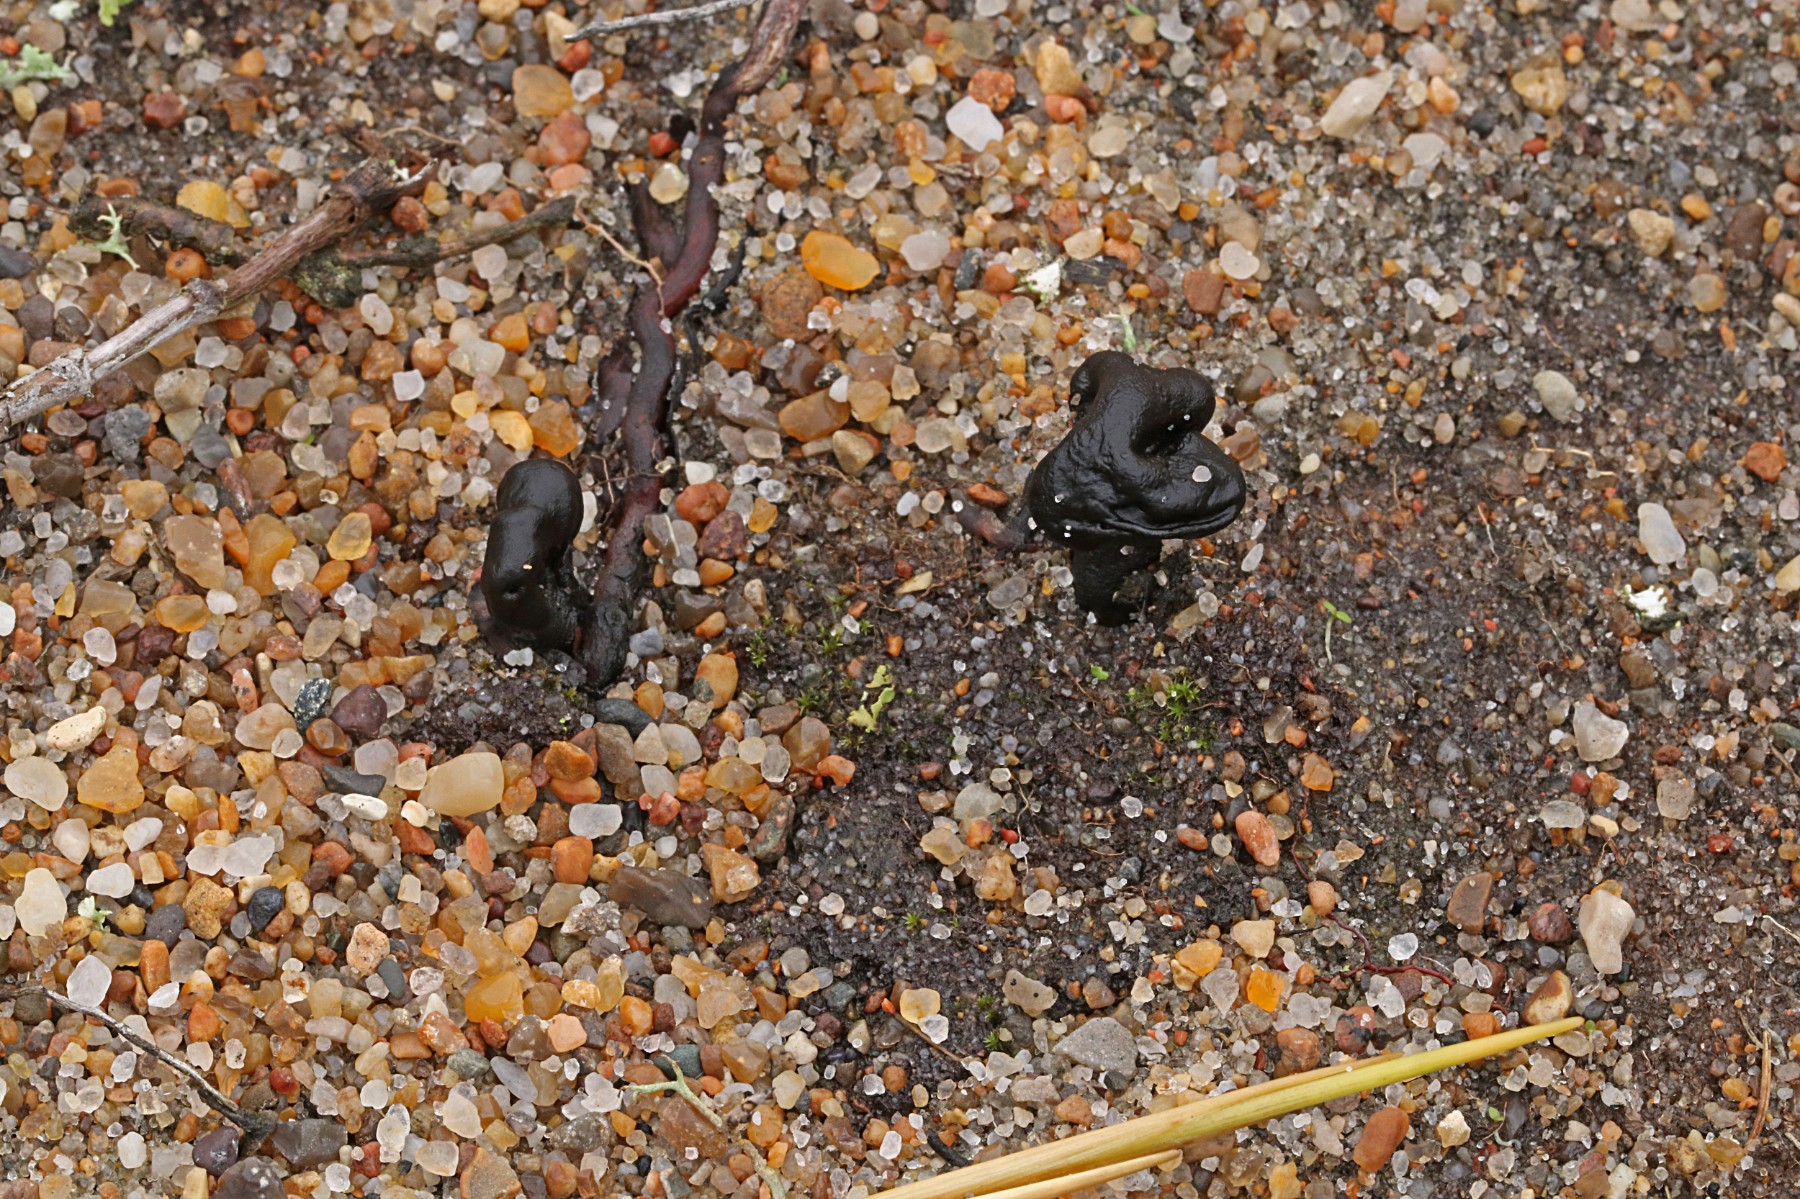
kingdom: Fungi
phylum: Ascomycota
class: Geoglossomycetes
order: Geoglossales
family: Geoglossaceae
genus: Sabuloglossum
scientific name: Sabuloglossum arenarium
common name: klit-jordtunge
